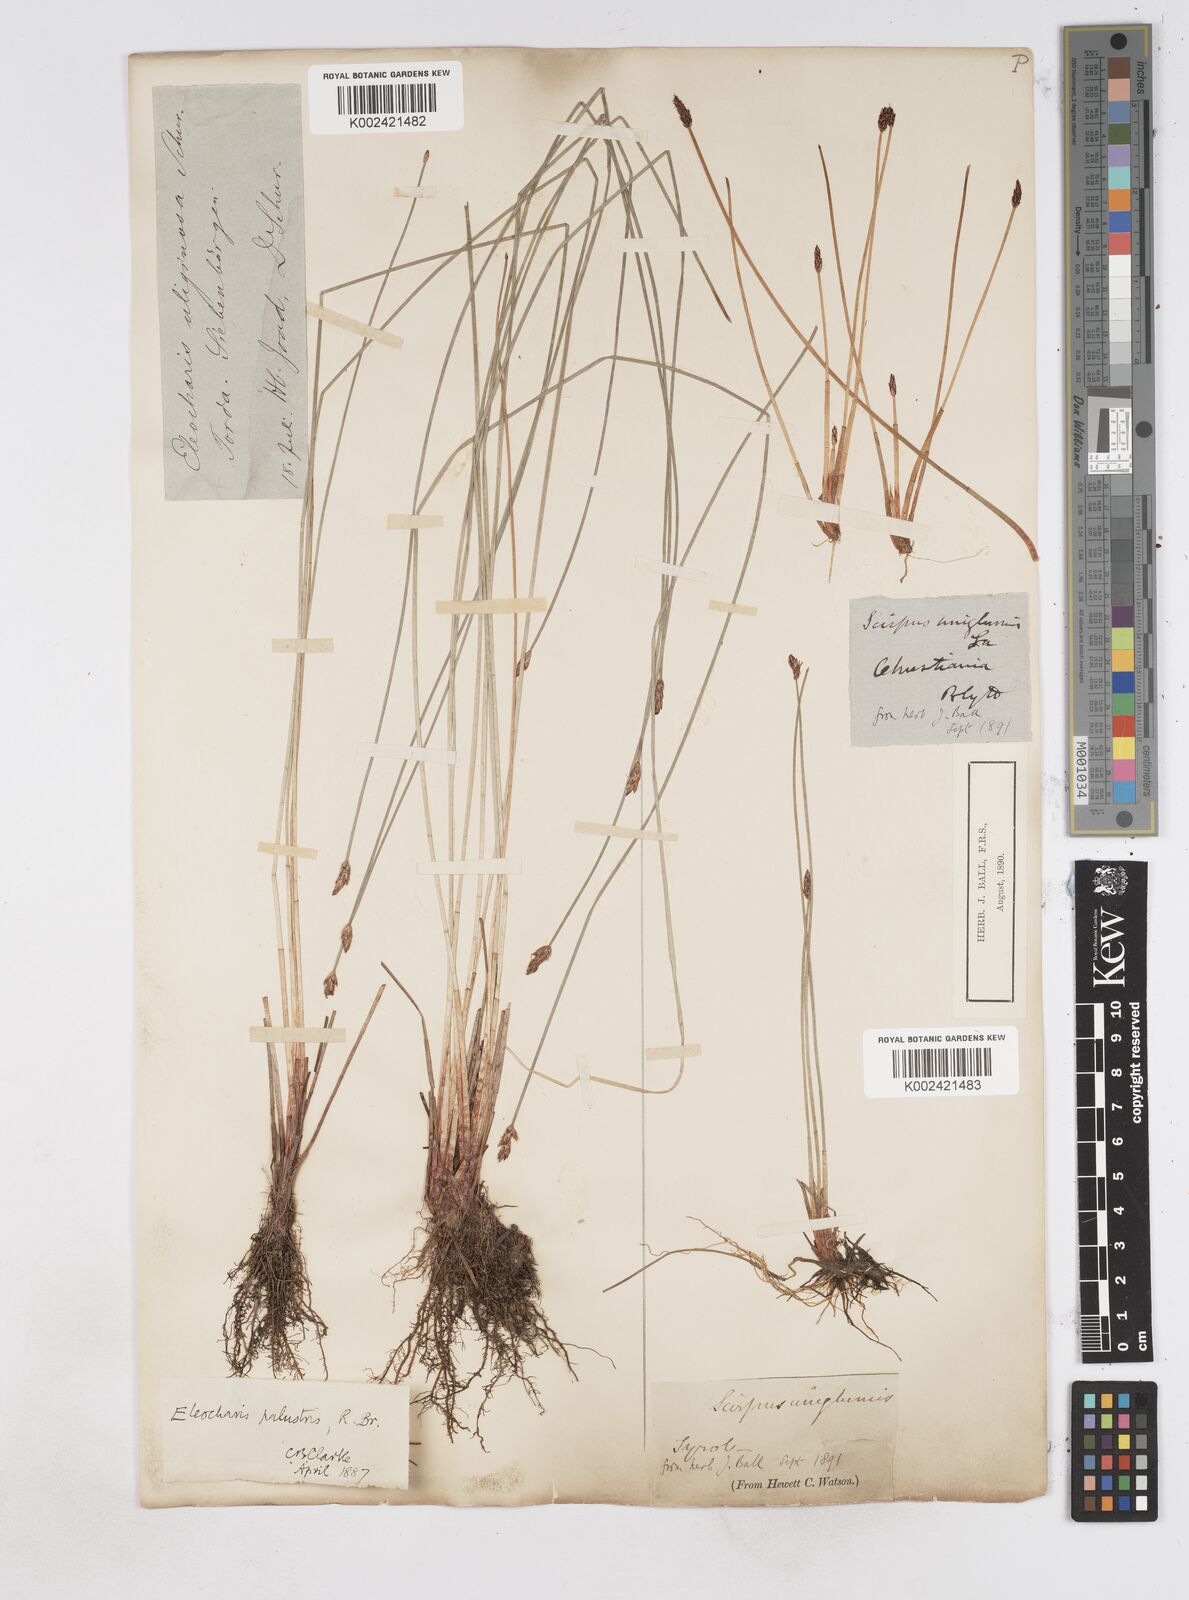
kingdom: Plantae
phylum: Tracheophyta
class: Liliopsida
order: Poales
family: Cyperaceae
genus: Eleocharis
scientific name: Eleocharis uniglumis
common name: Slender spike-rush
